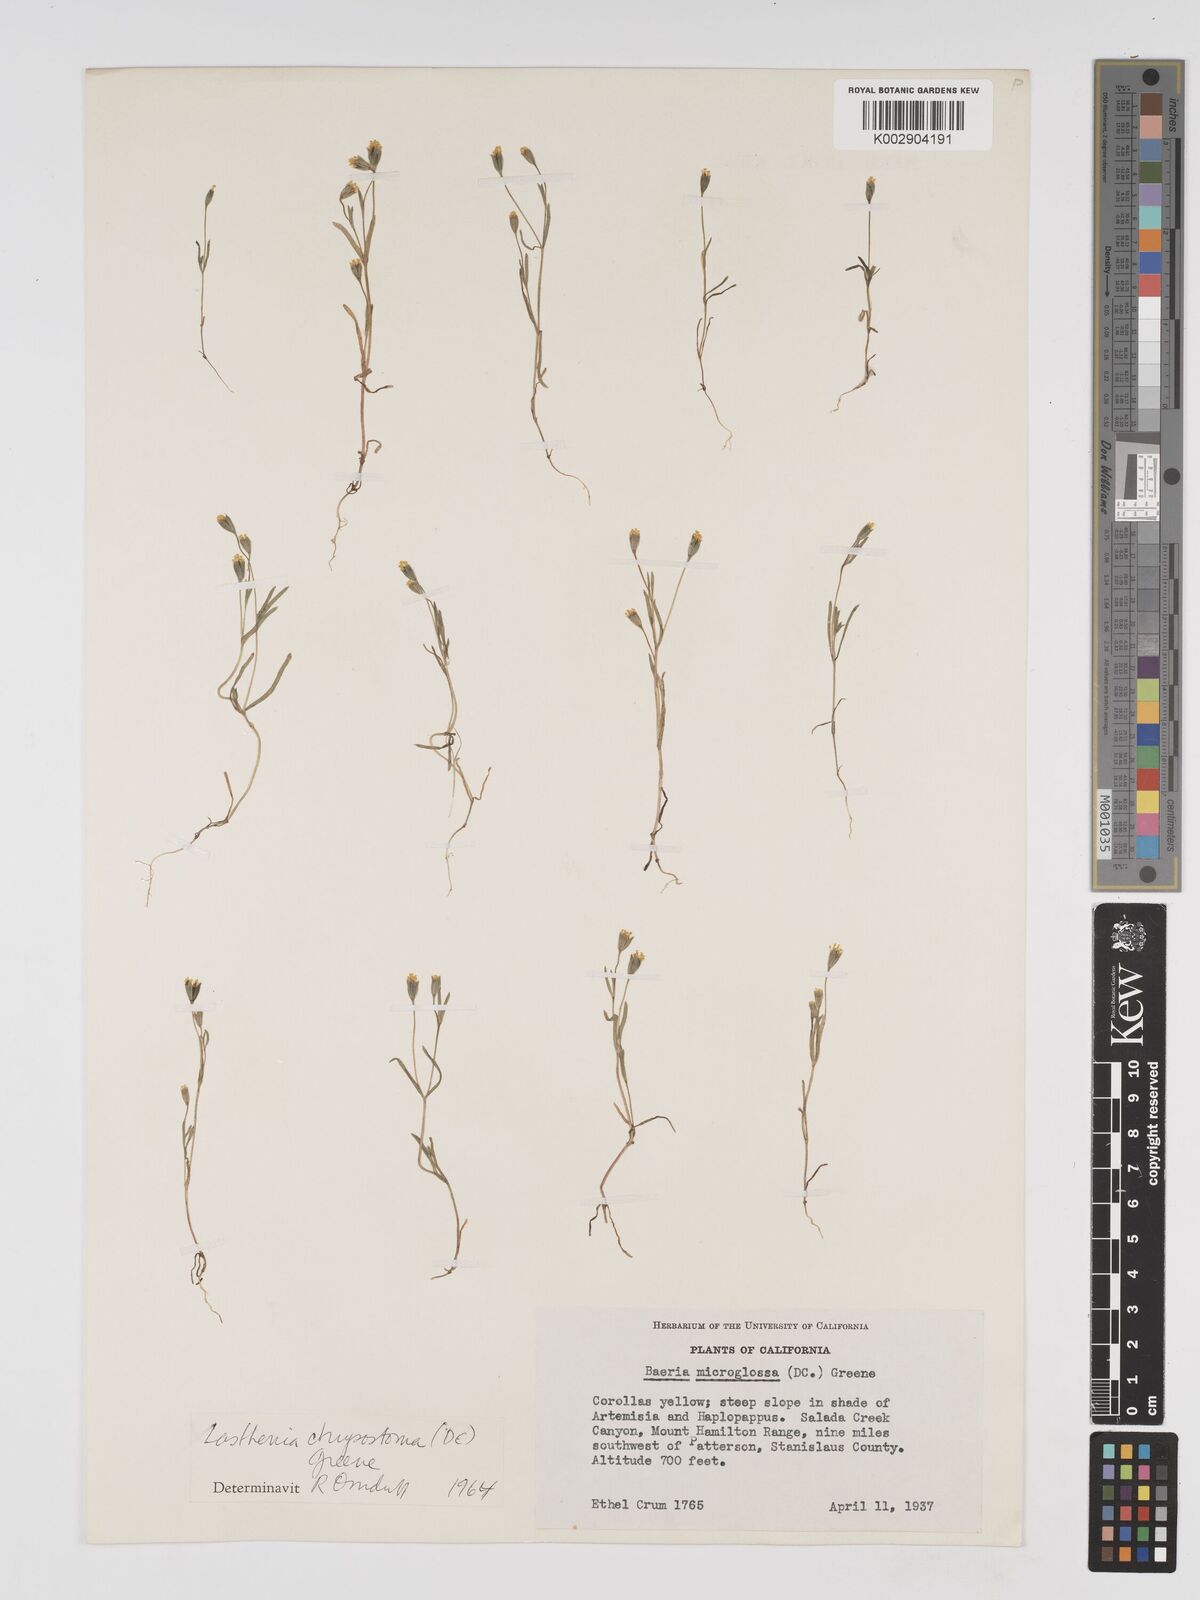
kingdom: Plantae
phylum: Tracheophyta
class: Magnoliopsida
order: Asterales
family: Asteraceae
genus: Lasthenia
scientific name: Lasthenia microglossa
